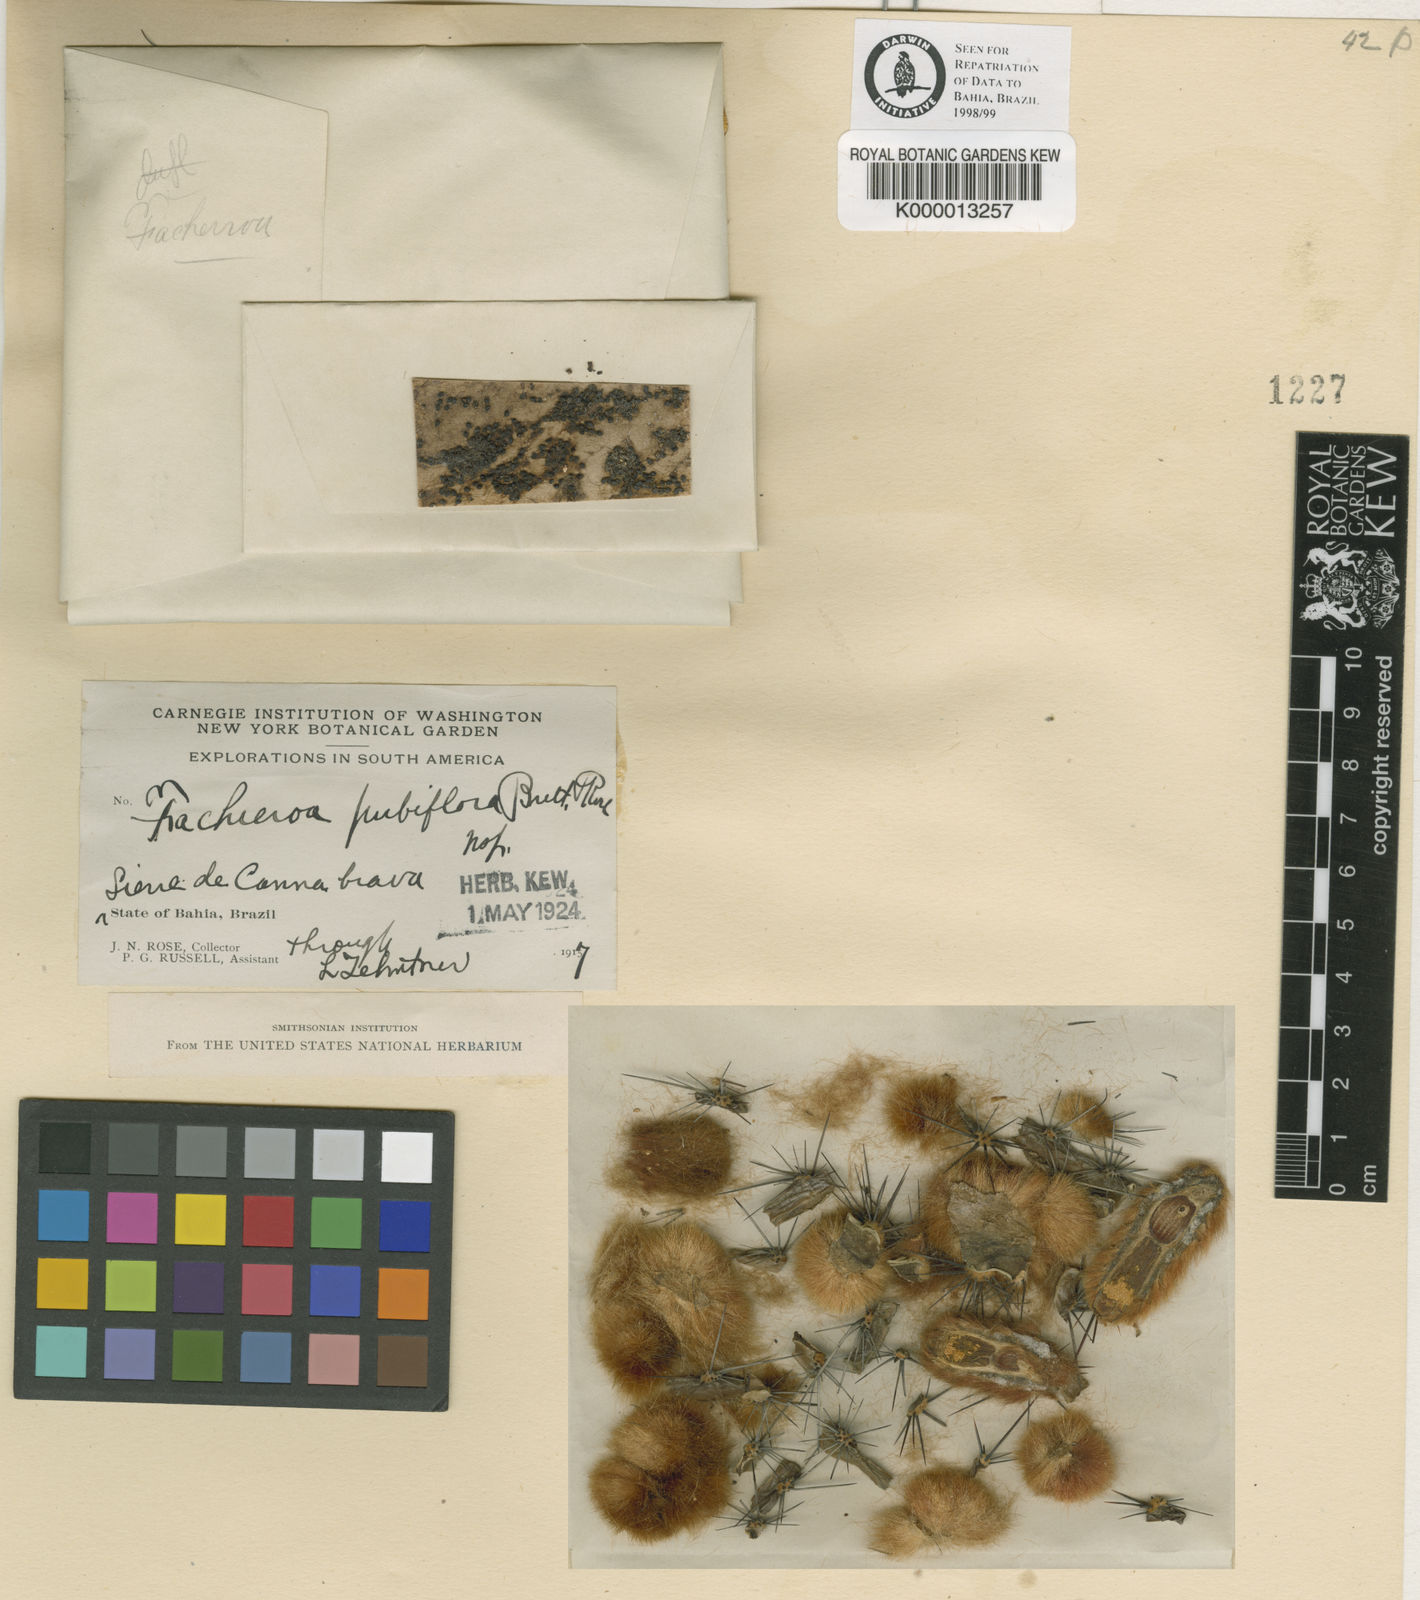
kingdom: Plantae
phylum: Tracheophyta
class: Magnoliopsida
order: Caryophyllales
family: Cactaceae
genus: Facheiroa
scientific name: Facheiroa
